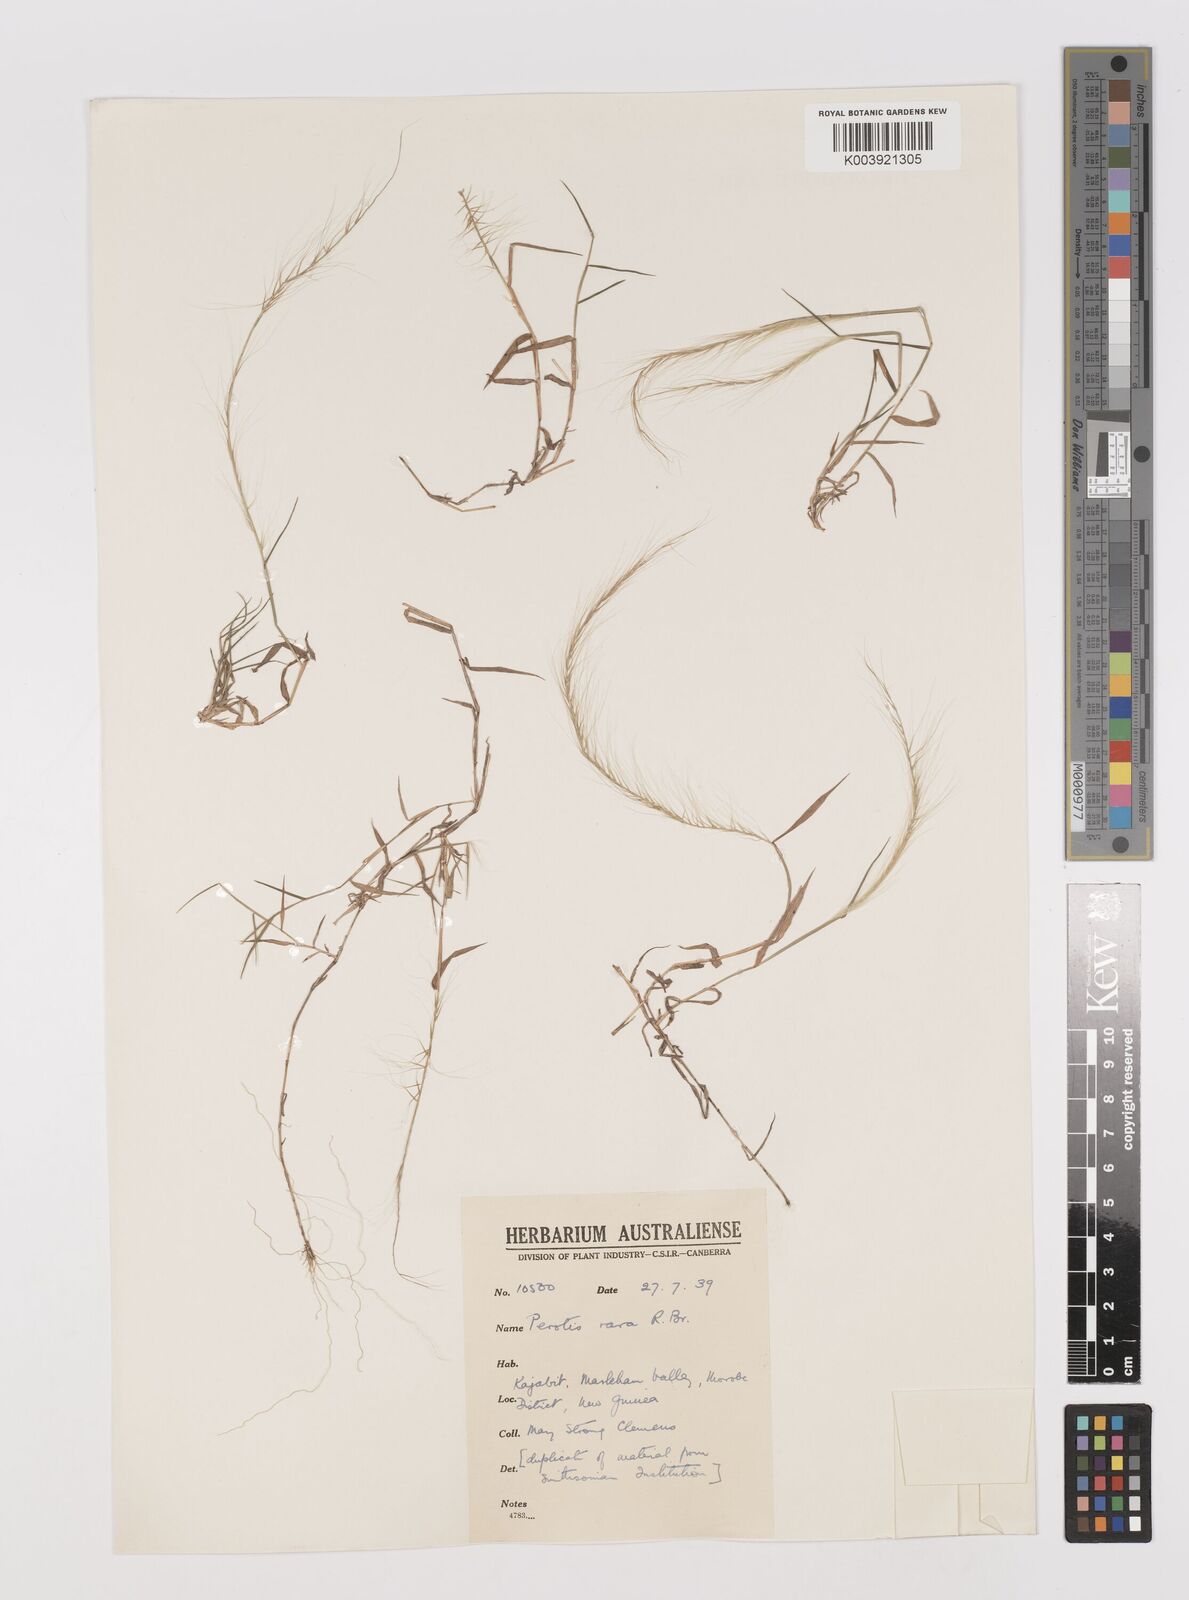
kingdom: Plantae
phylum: Tracheophyta
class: Liliopsida
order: Poales
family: Poaceae
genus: Perotis
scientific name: Perotis rara
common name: Comet grass
